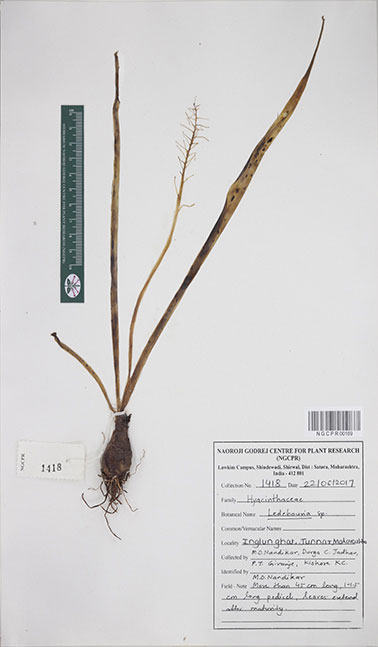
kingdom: Plantae
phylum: Tracheophyta
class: Liliopsida
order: Asparagales
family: Asparagaceae
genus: Ledebouria
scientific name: Ledebouria
